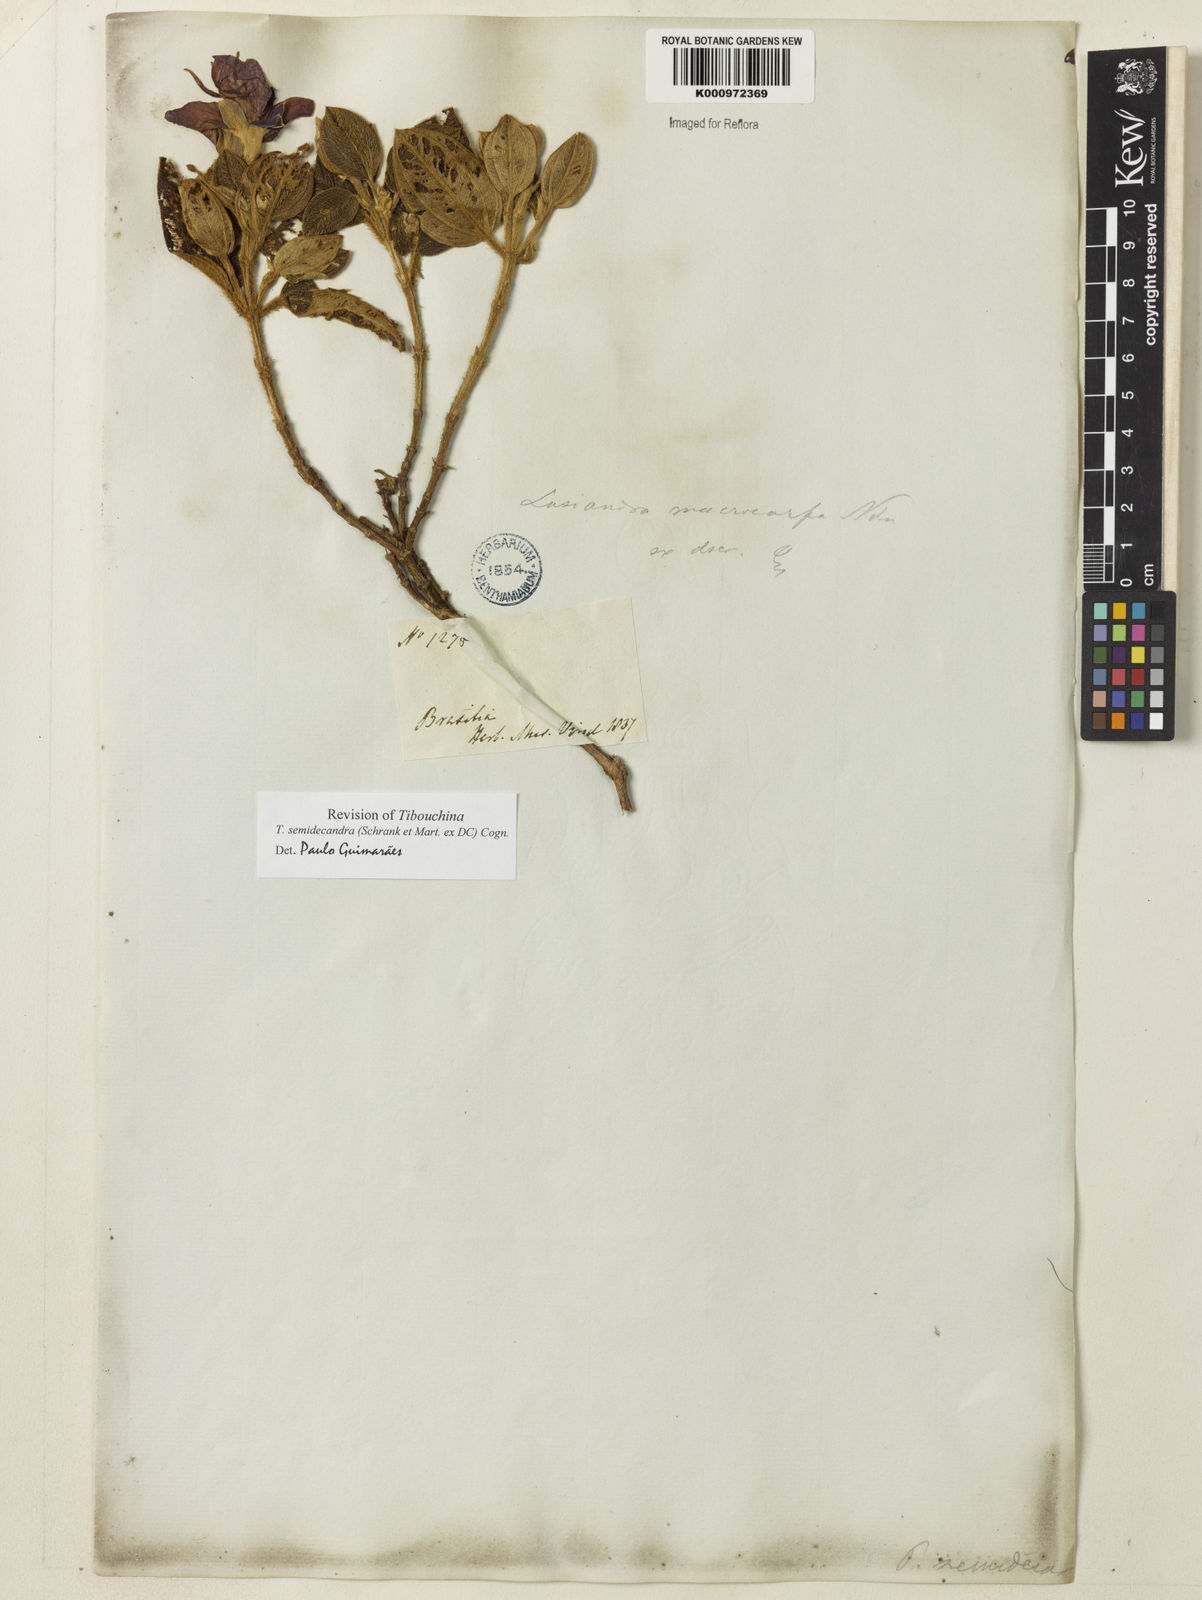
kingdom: Plantae
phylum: Tracheophyta
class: Magnoliopsida
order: Myrtales
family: Melastomataceae
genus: Pleroma
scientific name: Pleroma semidecandrum
